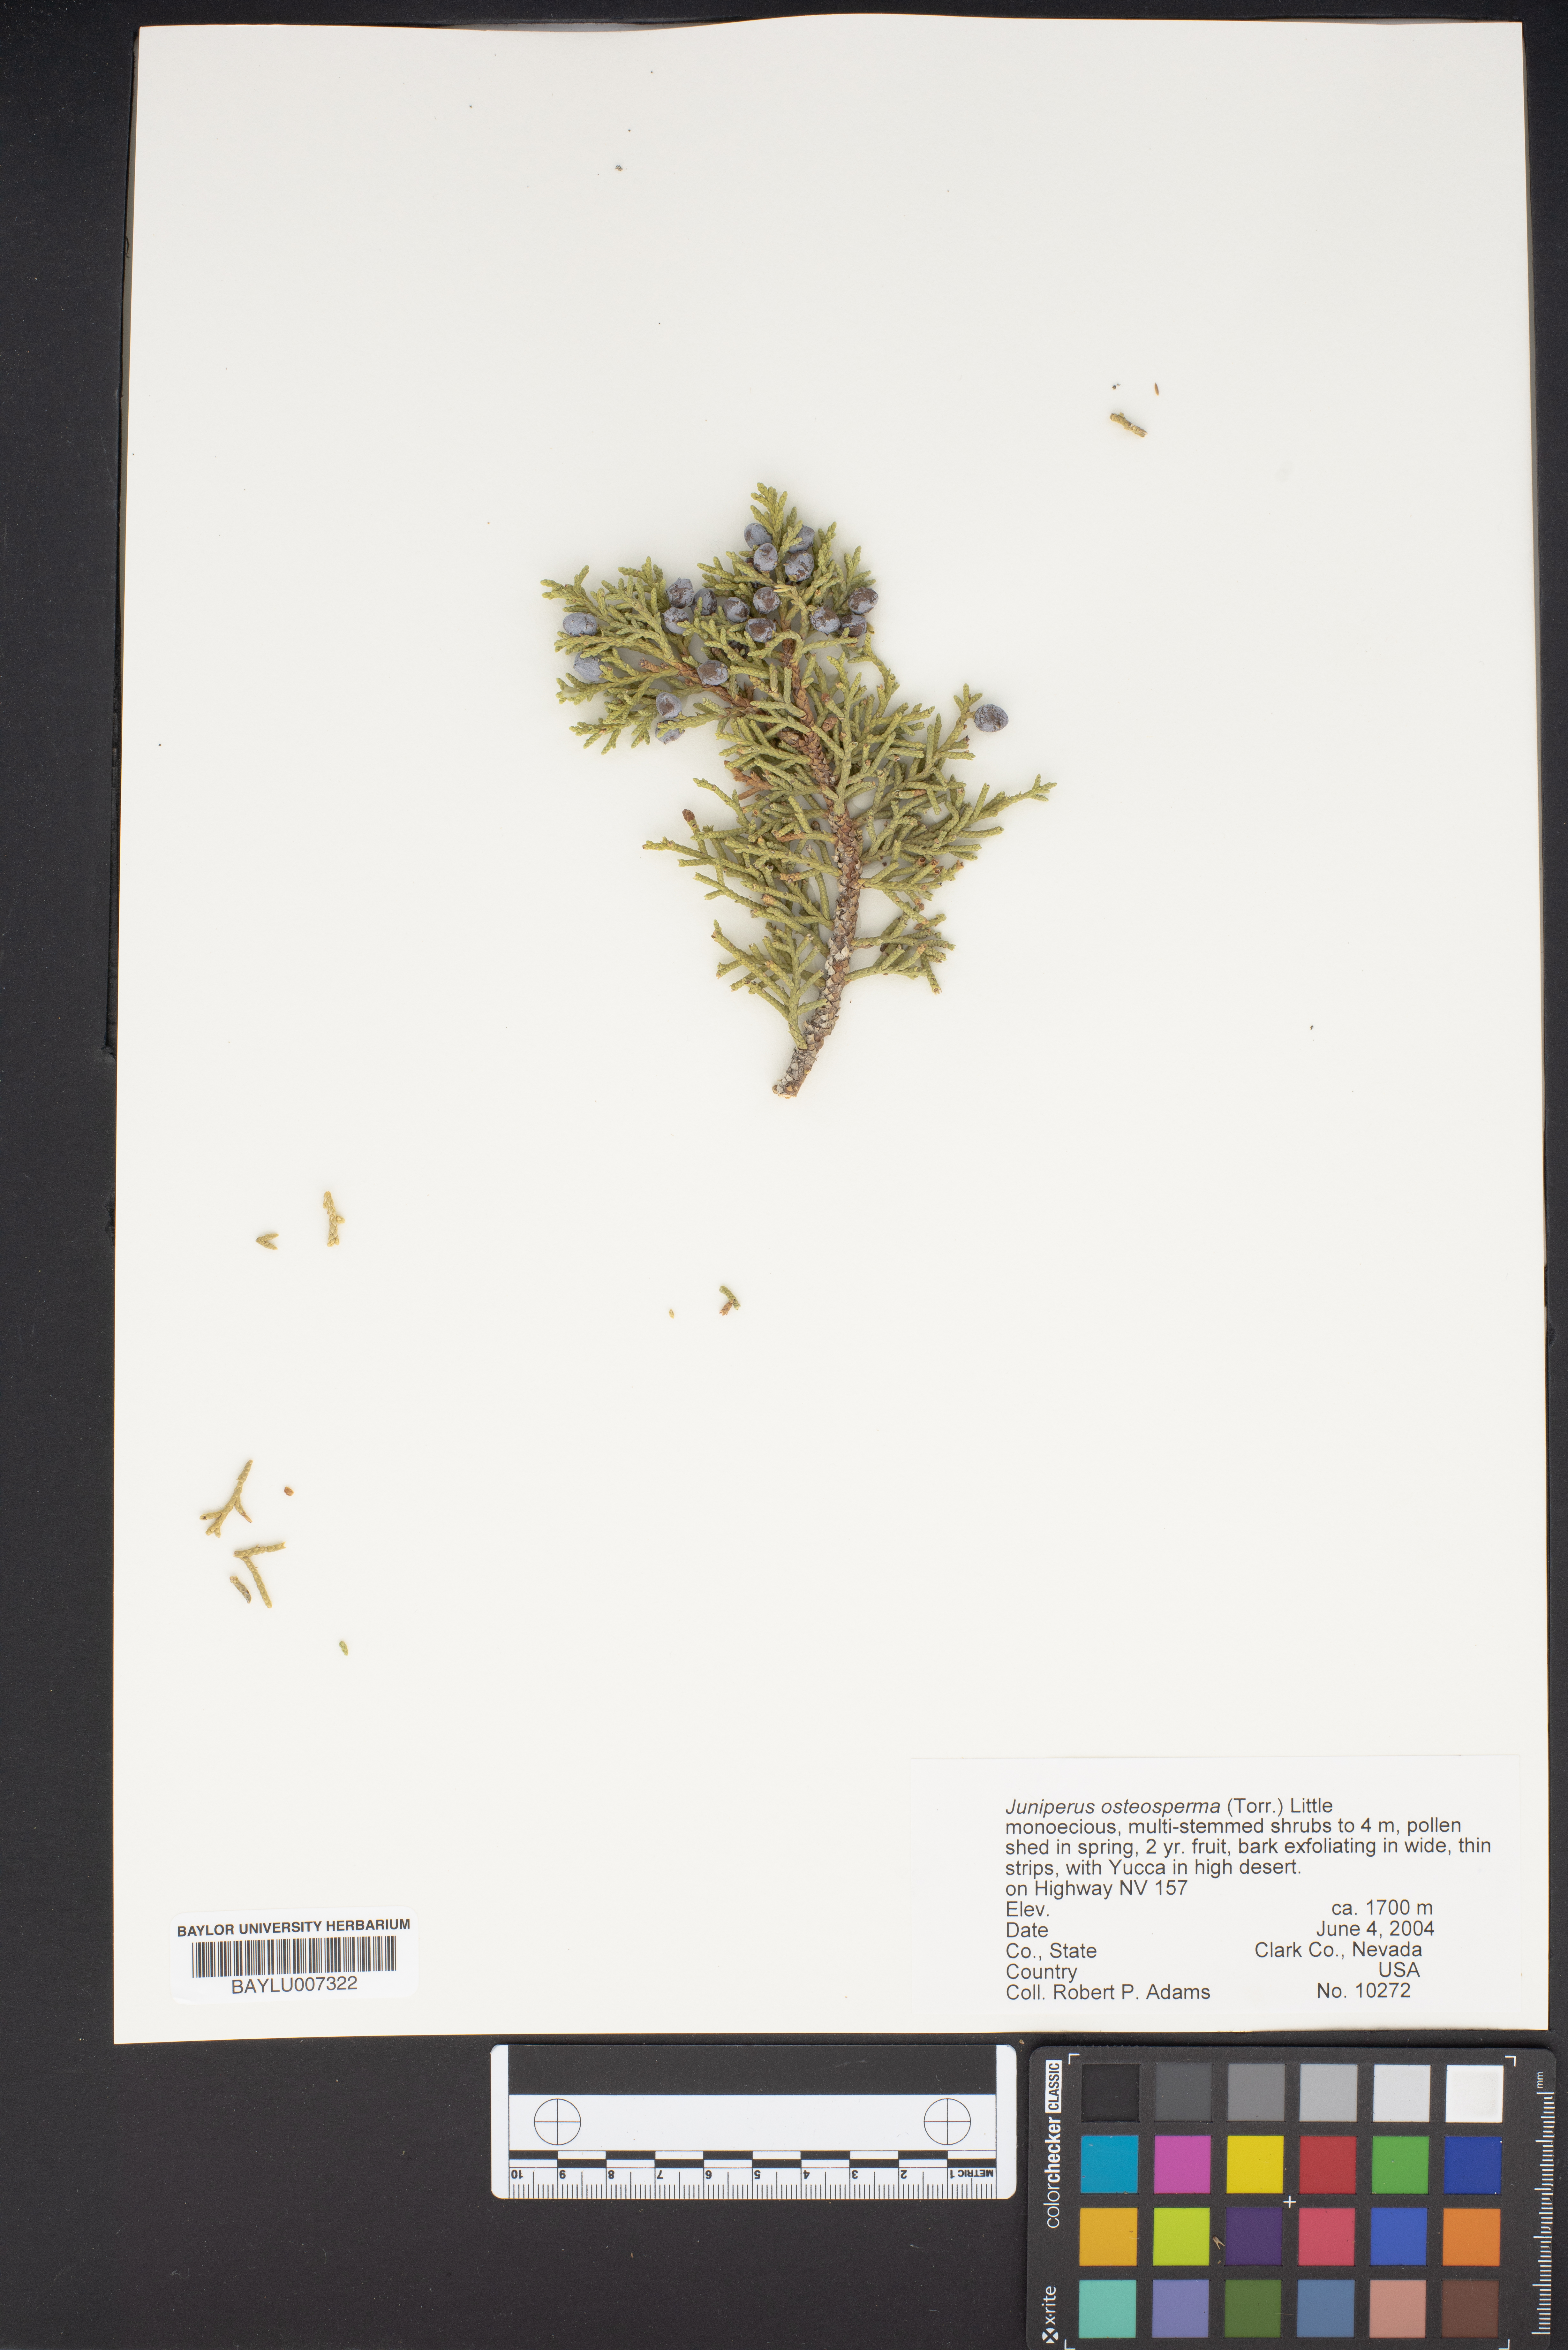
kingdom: Plantae
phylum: Tracheophyta
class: Pinopsida
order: Pinales
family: Cupressaceae
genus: Juniperus
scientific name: Juniperus osteosperma
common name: Utah juniper
